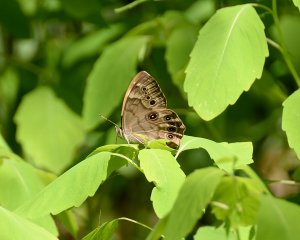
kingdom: Animalia
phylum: Arthropoda
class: Insecta
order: Lepidoptera
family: Nymphalidae
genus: Lethe
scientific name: Lethe anthedon
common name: Northern Pearly-Eye
